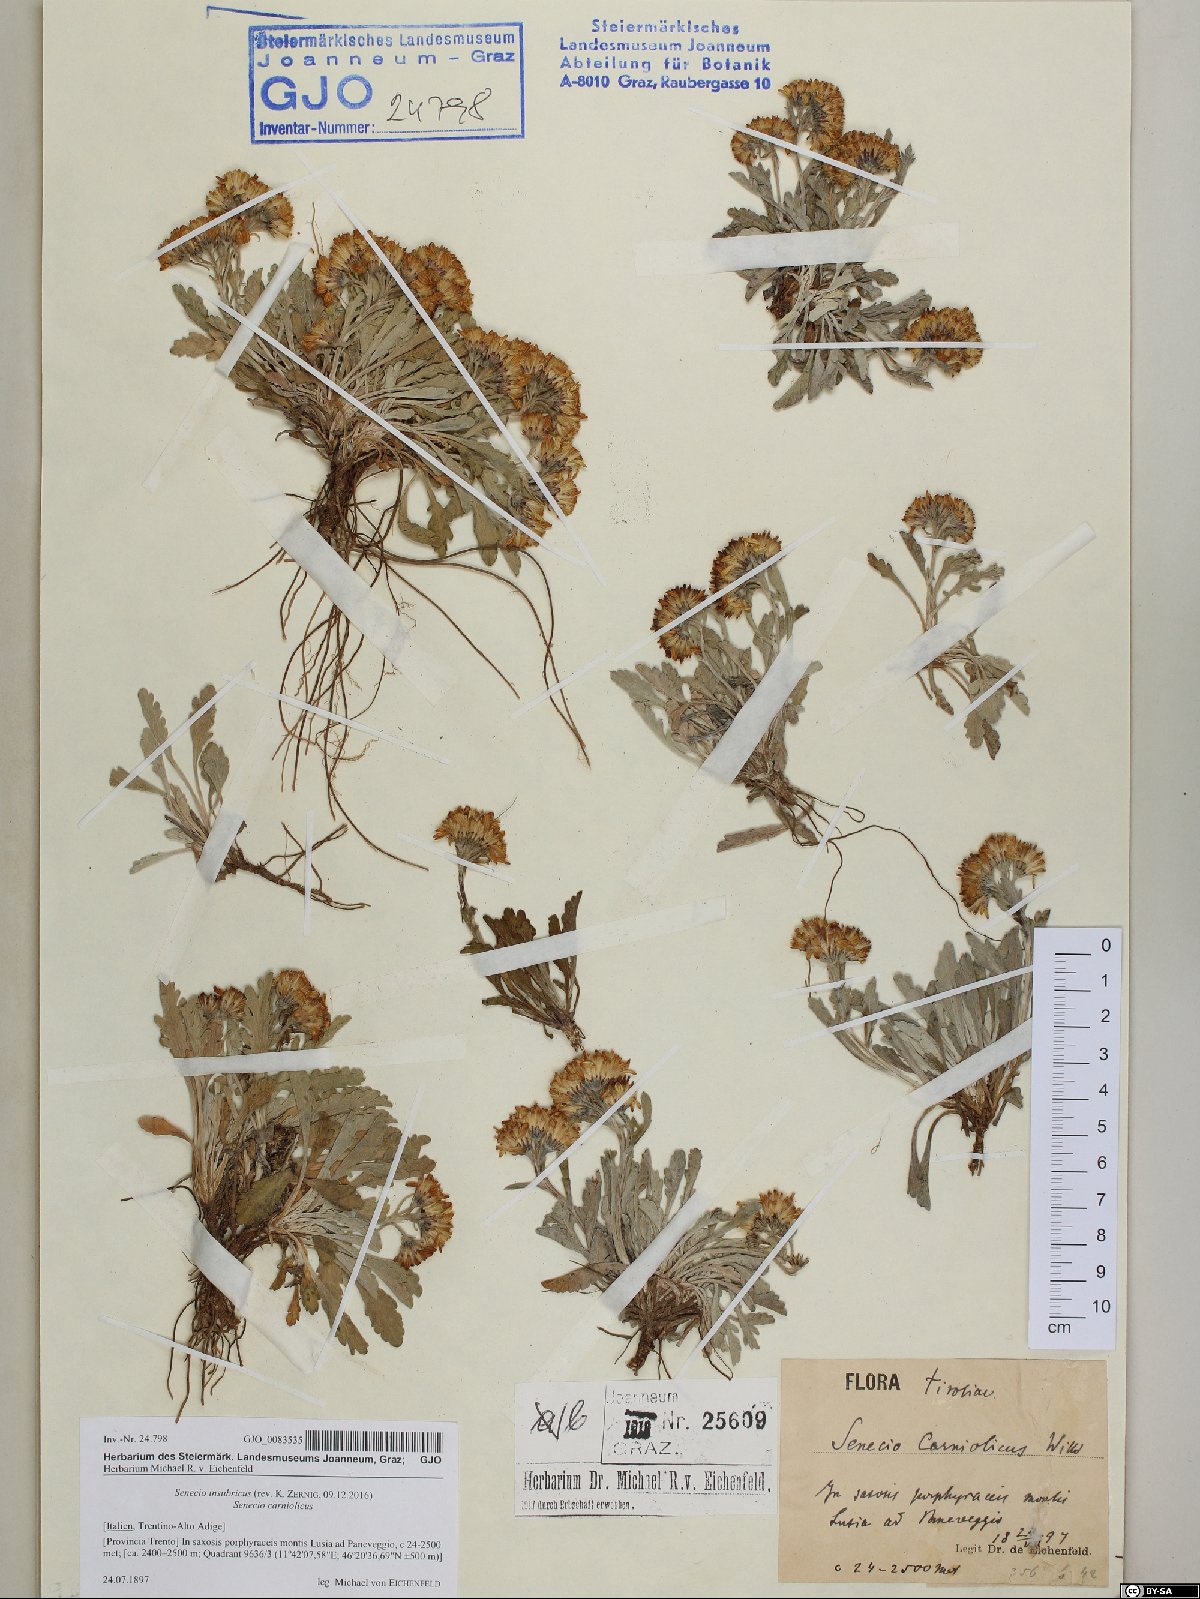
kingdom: Plantae
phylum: Tracheophyta
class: Magnoliopsida
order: Asterales
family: Asteraceae
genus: Jacobaea
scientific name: Jacobaea insubrica
